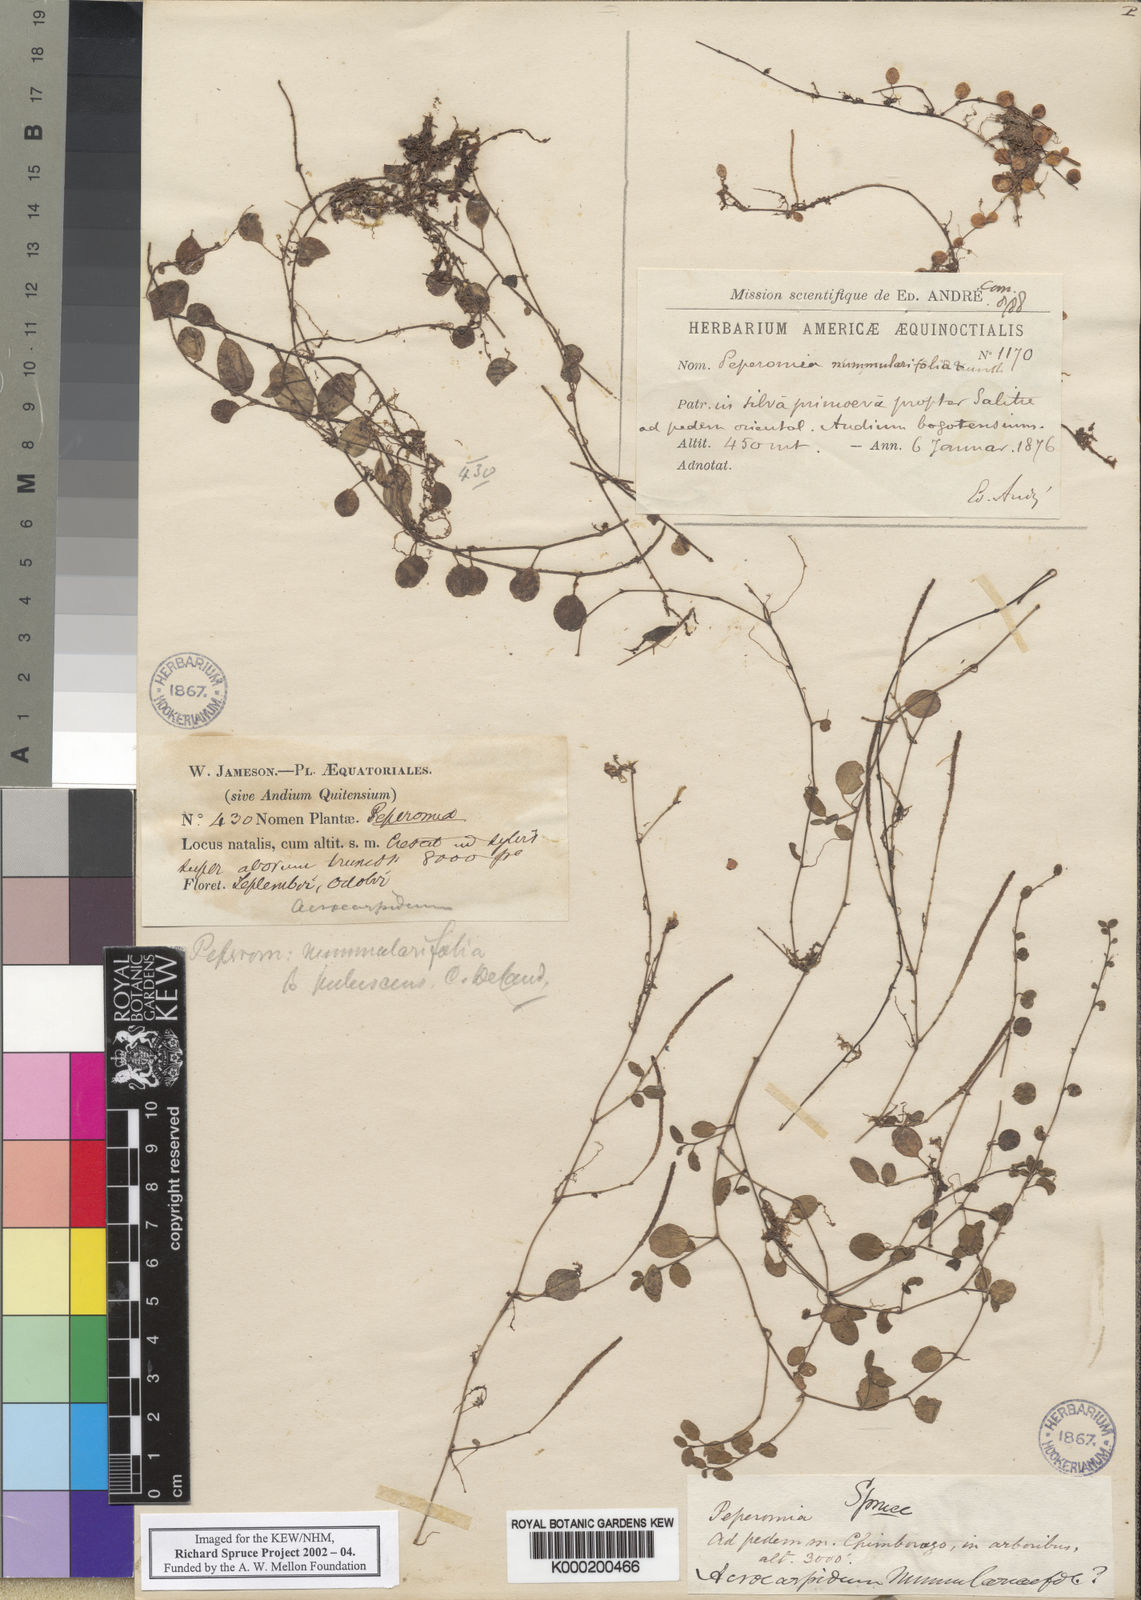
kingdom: Plantae
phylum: Tracheophyta
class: Magnoliopsida
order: Piperales
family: Piperaceae
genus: Peperomia
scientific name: Peperomia rotundifolia
